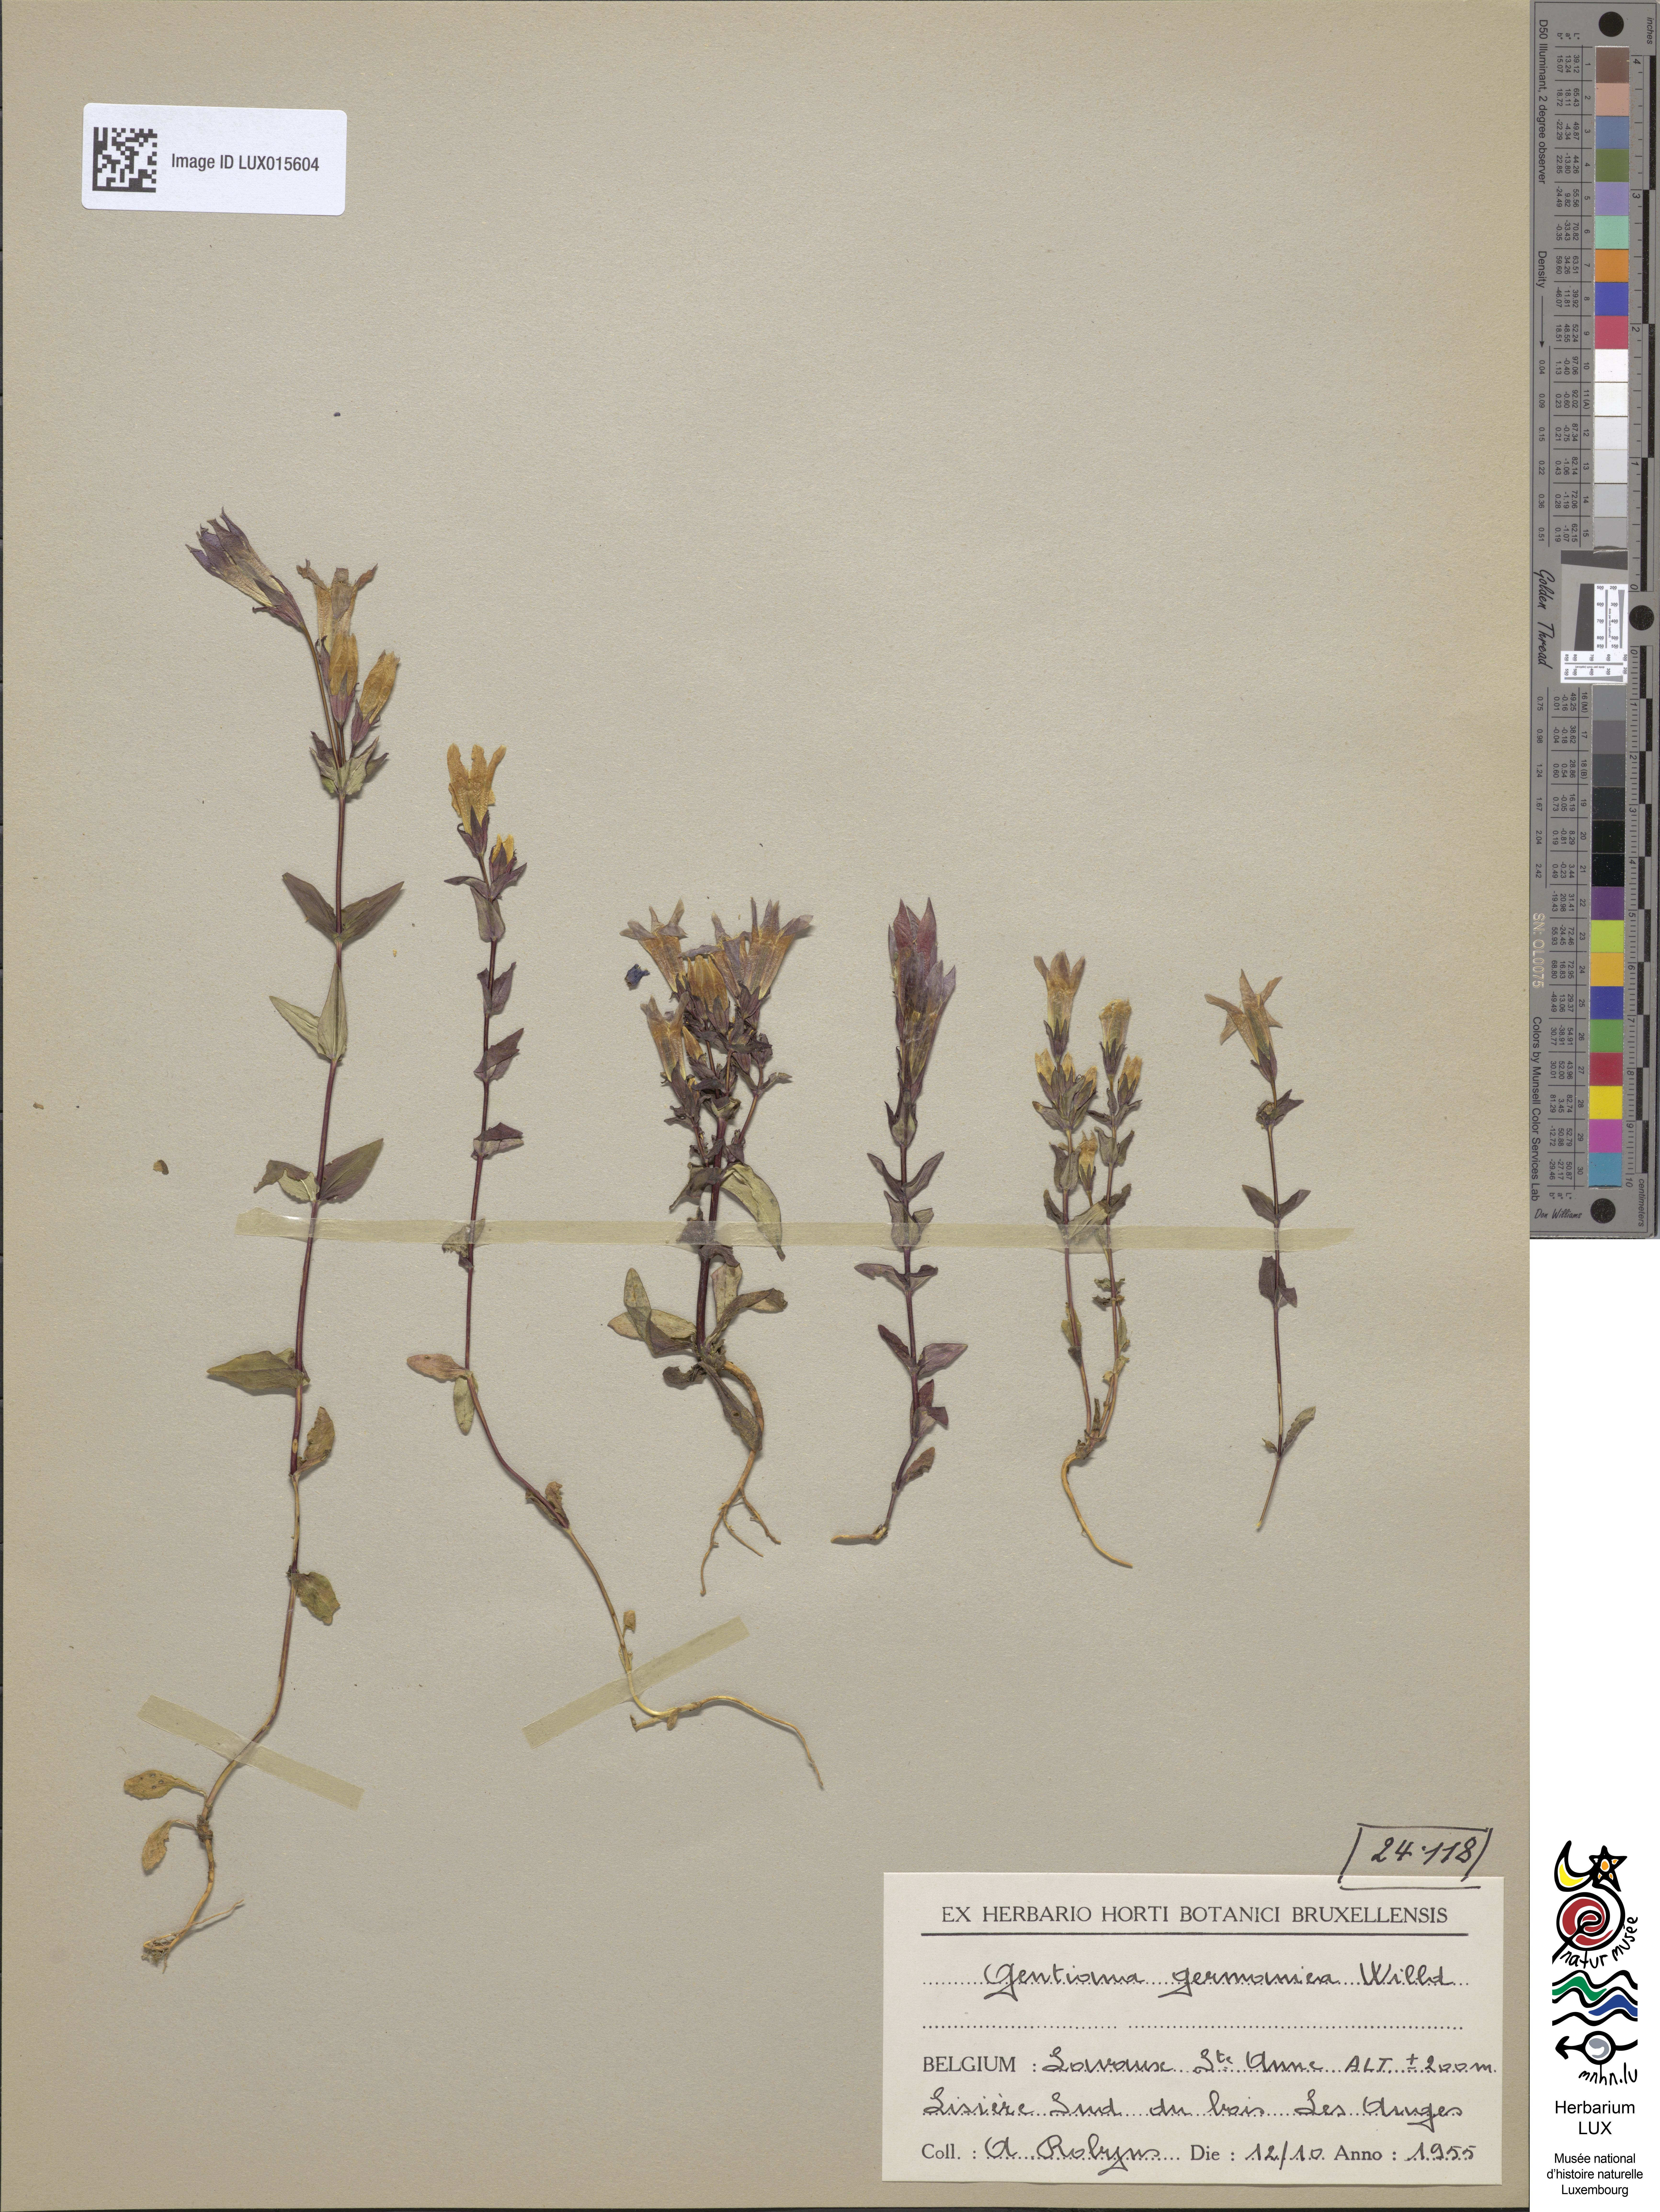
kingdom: Plantae
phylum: Tracheophyta
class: Magnoliopsida
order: Gentianales
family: Gentianaceae
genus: Gentianella
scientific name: Gentianella germanica
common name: Chiltern-gentian
